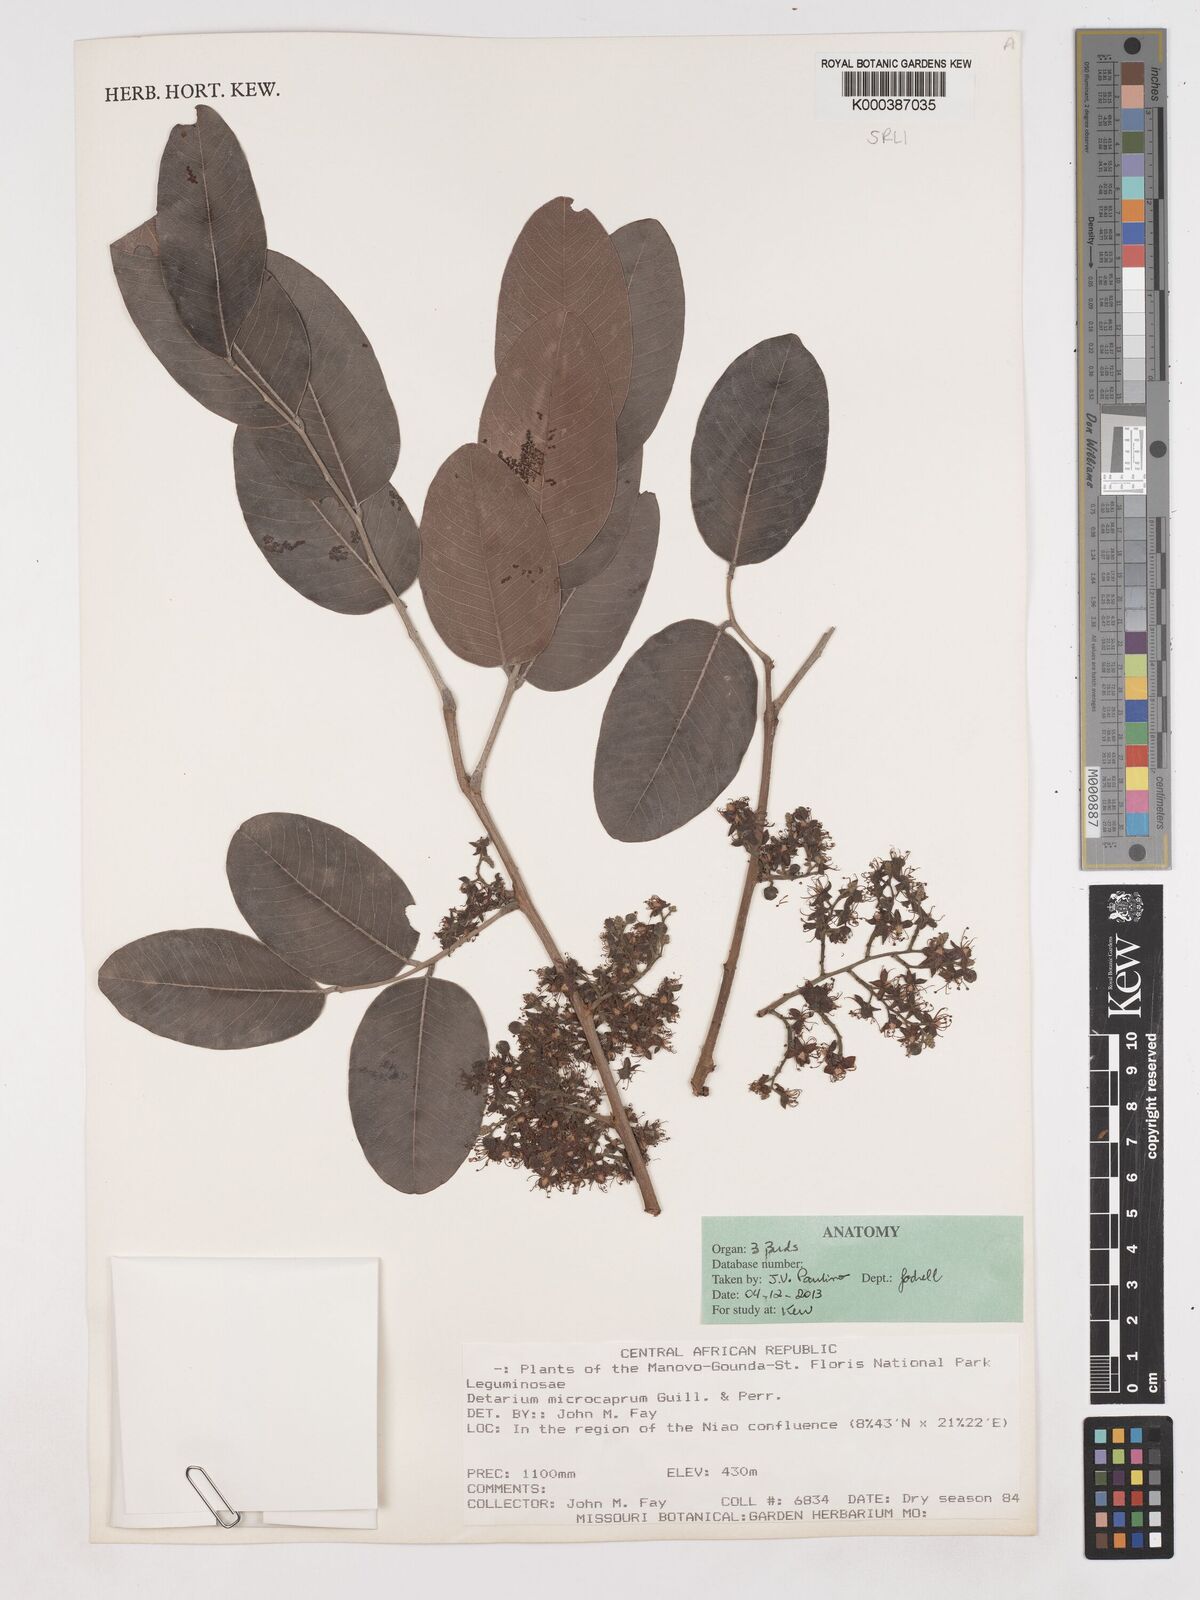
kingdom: Plantae
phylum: Tracheophyta
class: Magnoliopsida
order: Fabales
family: Fabaceae
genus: Detarium
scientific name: Detarium microcarpum
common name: Sweet dattock
